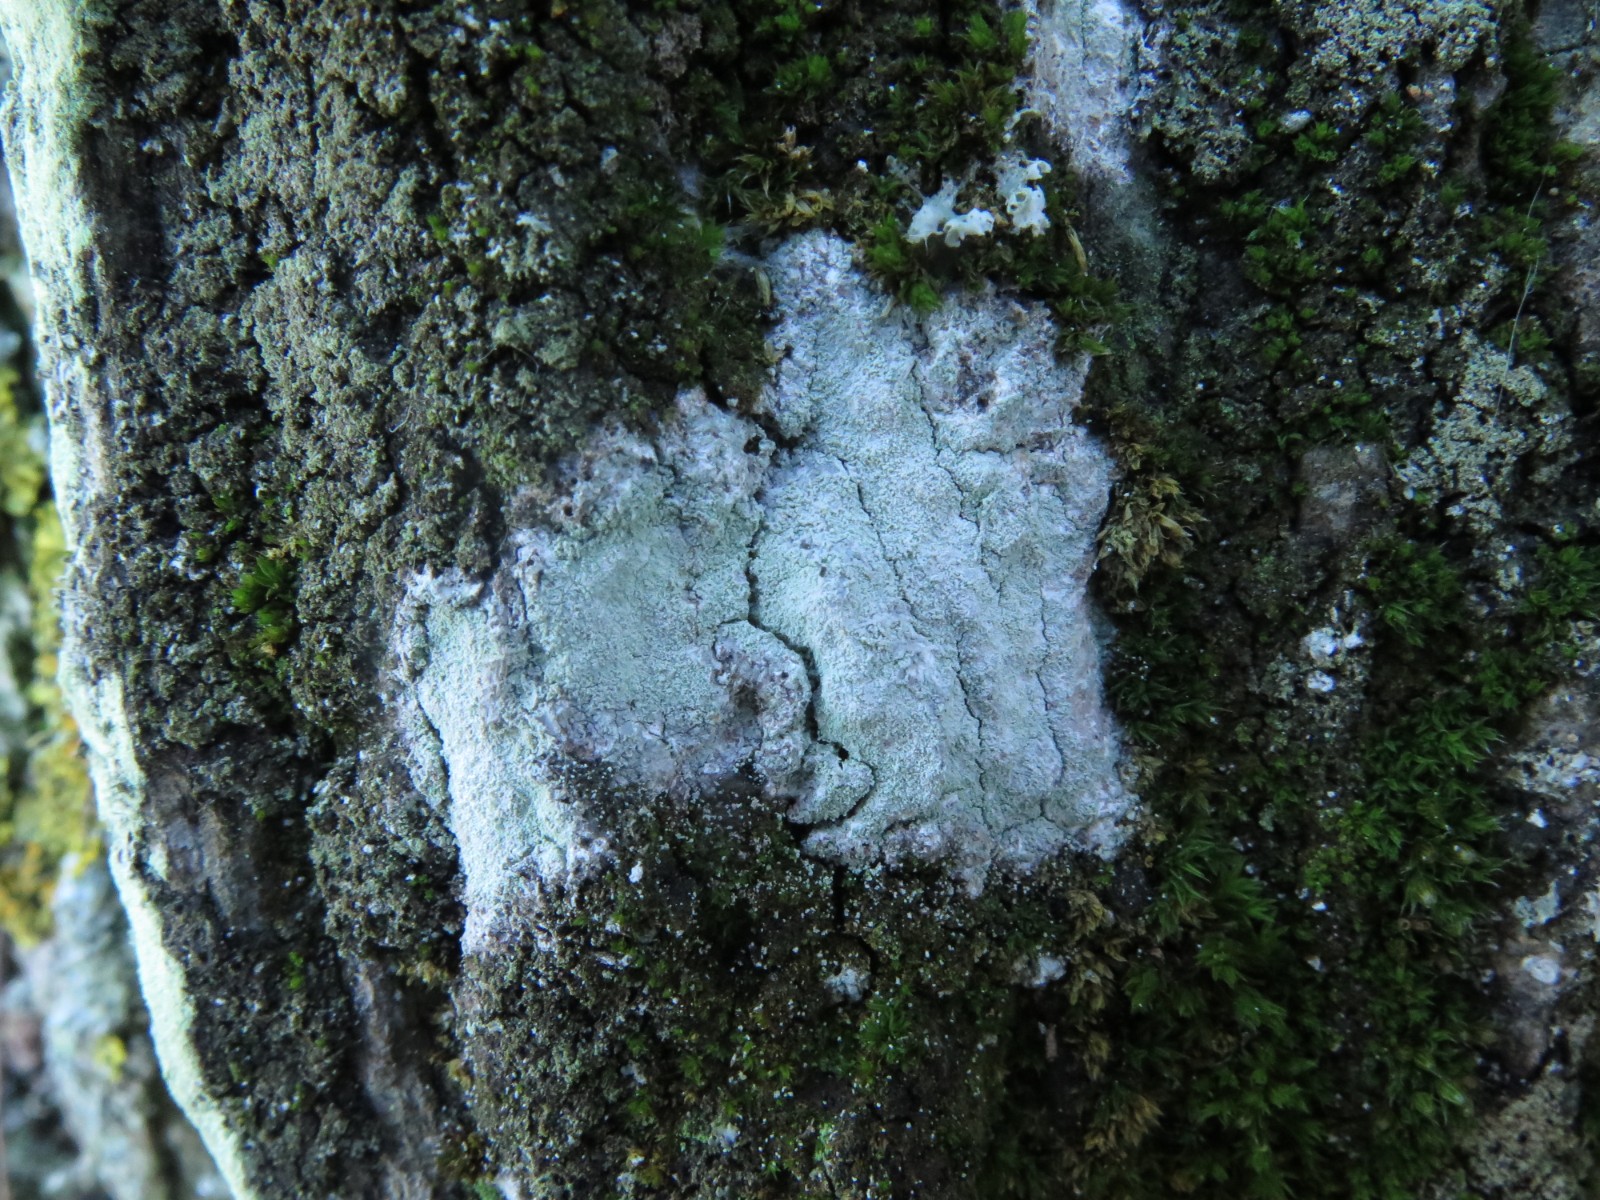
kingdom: Fungi
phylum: Ascomycota
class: Lecanoromycetes
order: Ostropales
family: Phlyctidaceae
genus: Phlyctis
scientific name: Phlyctis argena
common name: almindelig sølvlav
